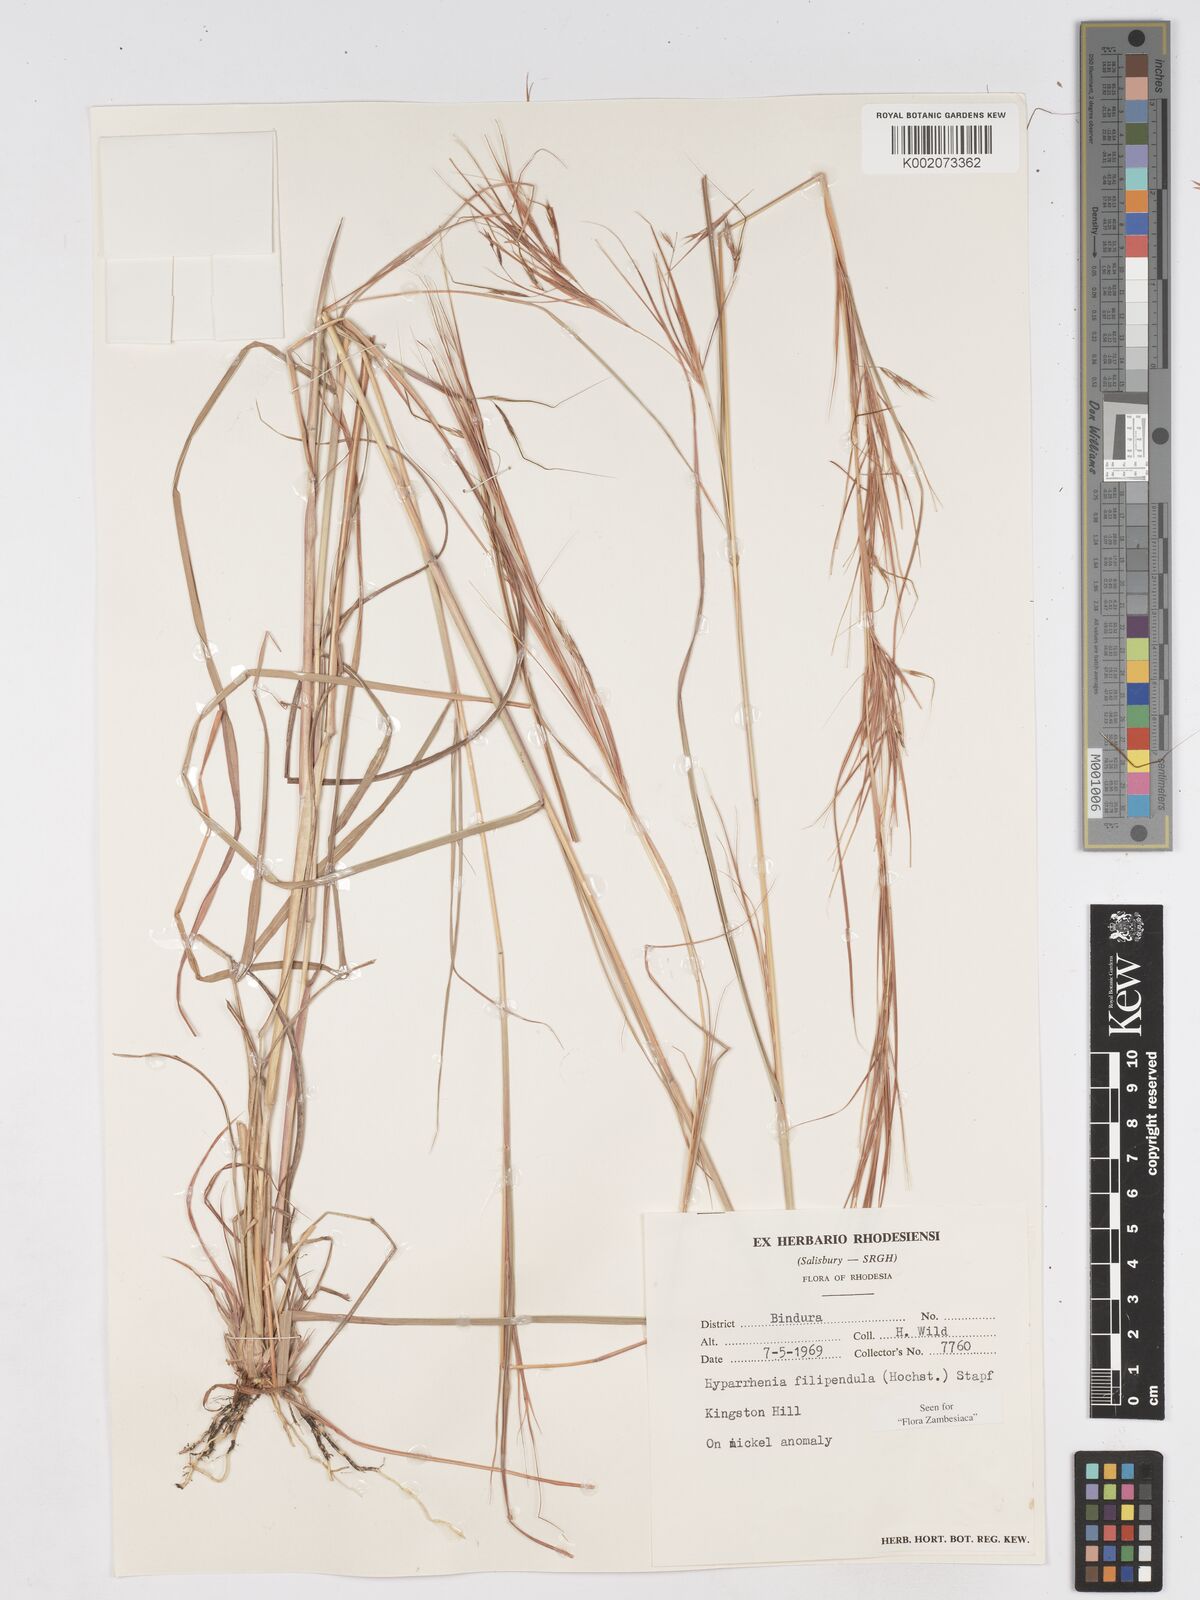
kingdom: Plantae
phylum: Tracheophyta
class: Liliopsida
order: Poales
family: Poaceae
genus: Hyparrhenia
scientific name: Hyparrhenia filipendula
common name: Tambookie grass
